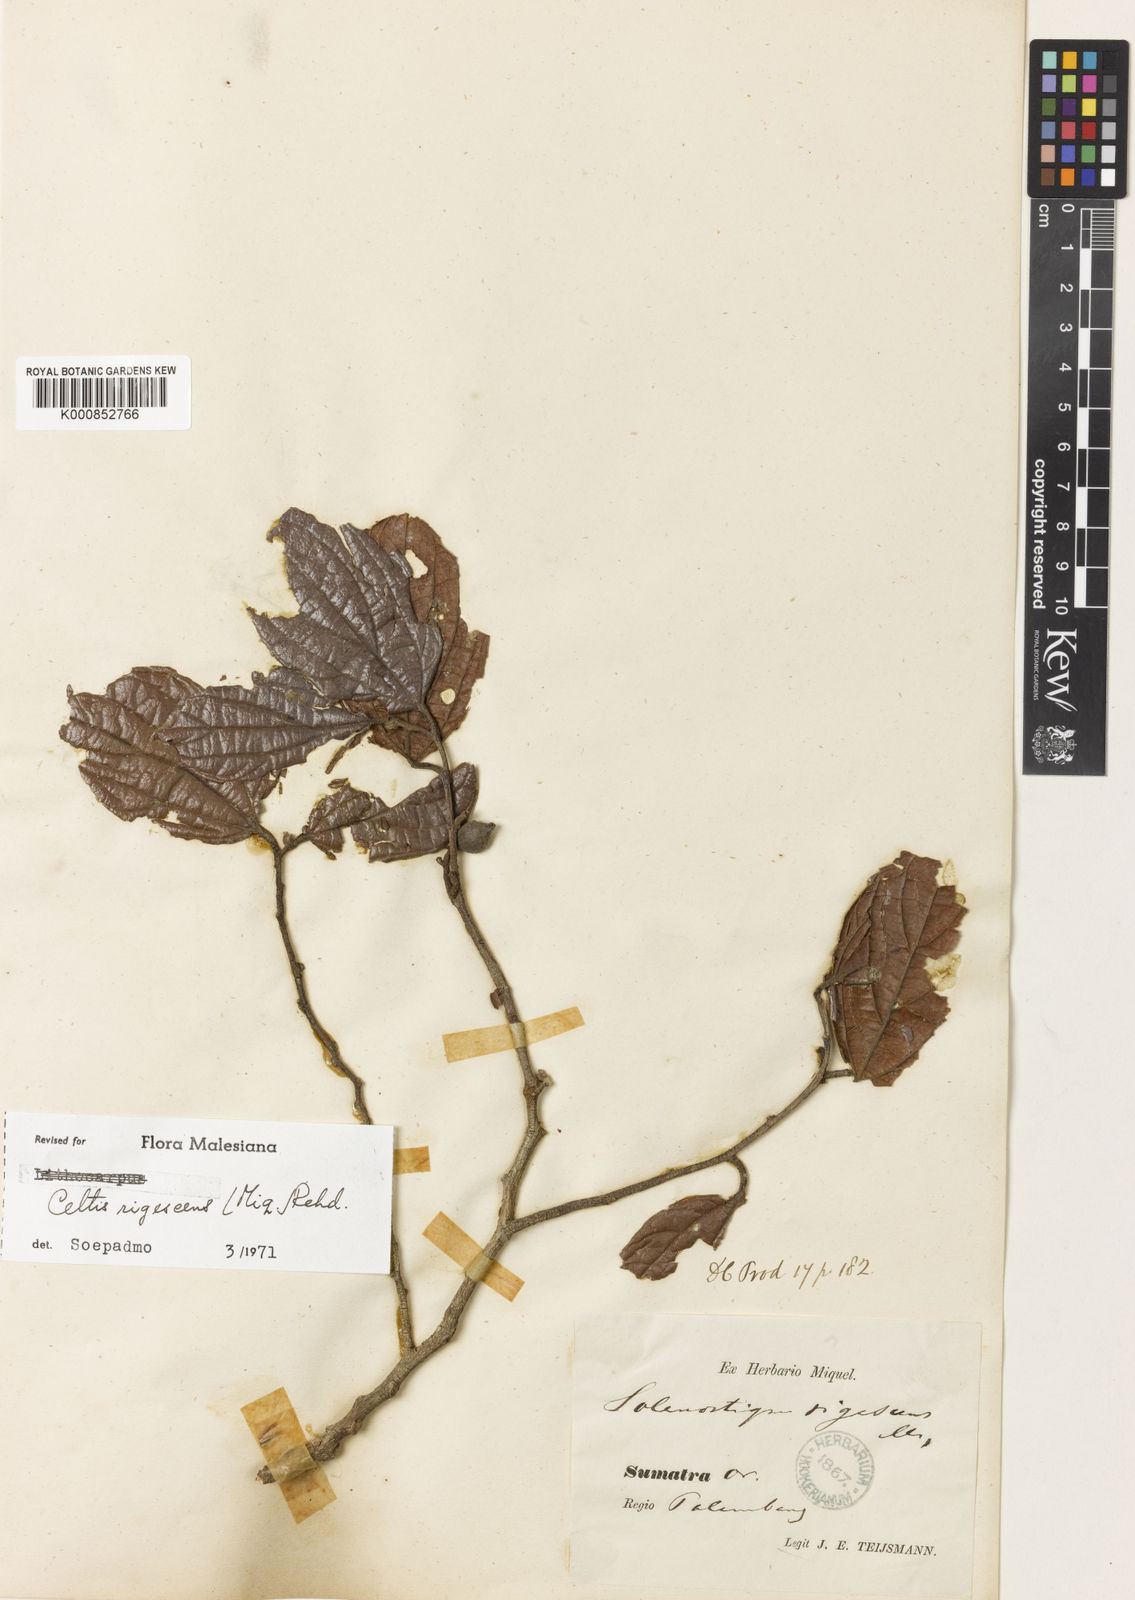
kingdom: Plantae
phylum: Tracheophyta
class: Magnoliopsida
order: Rosales
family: Cannabaceae
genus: Celtis
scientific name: Celtis
